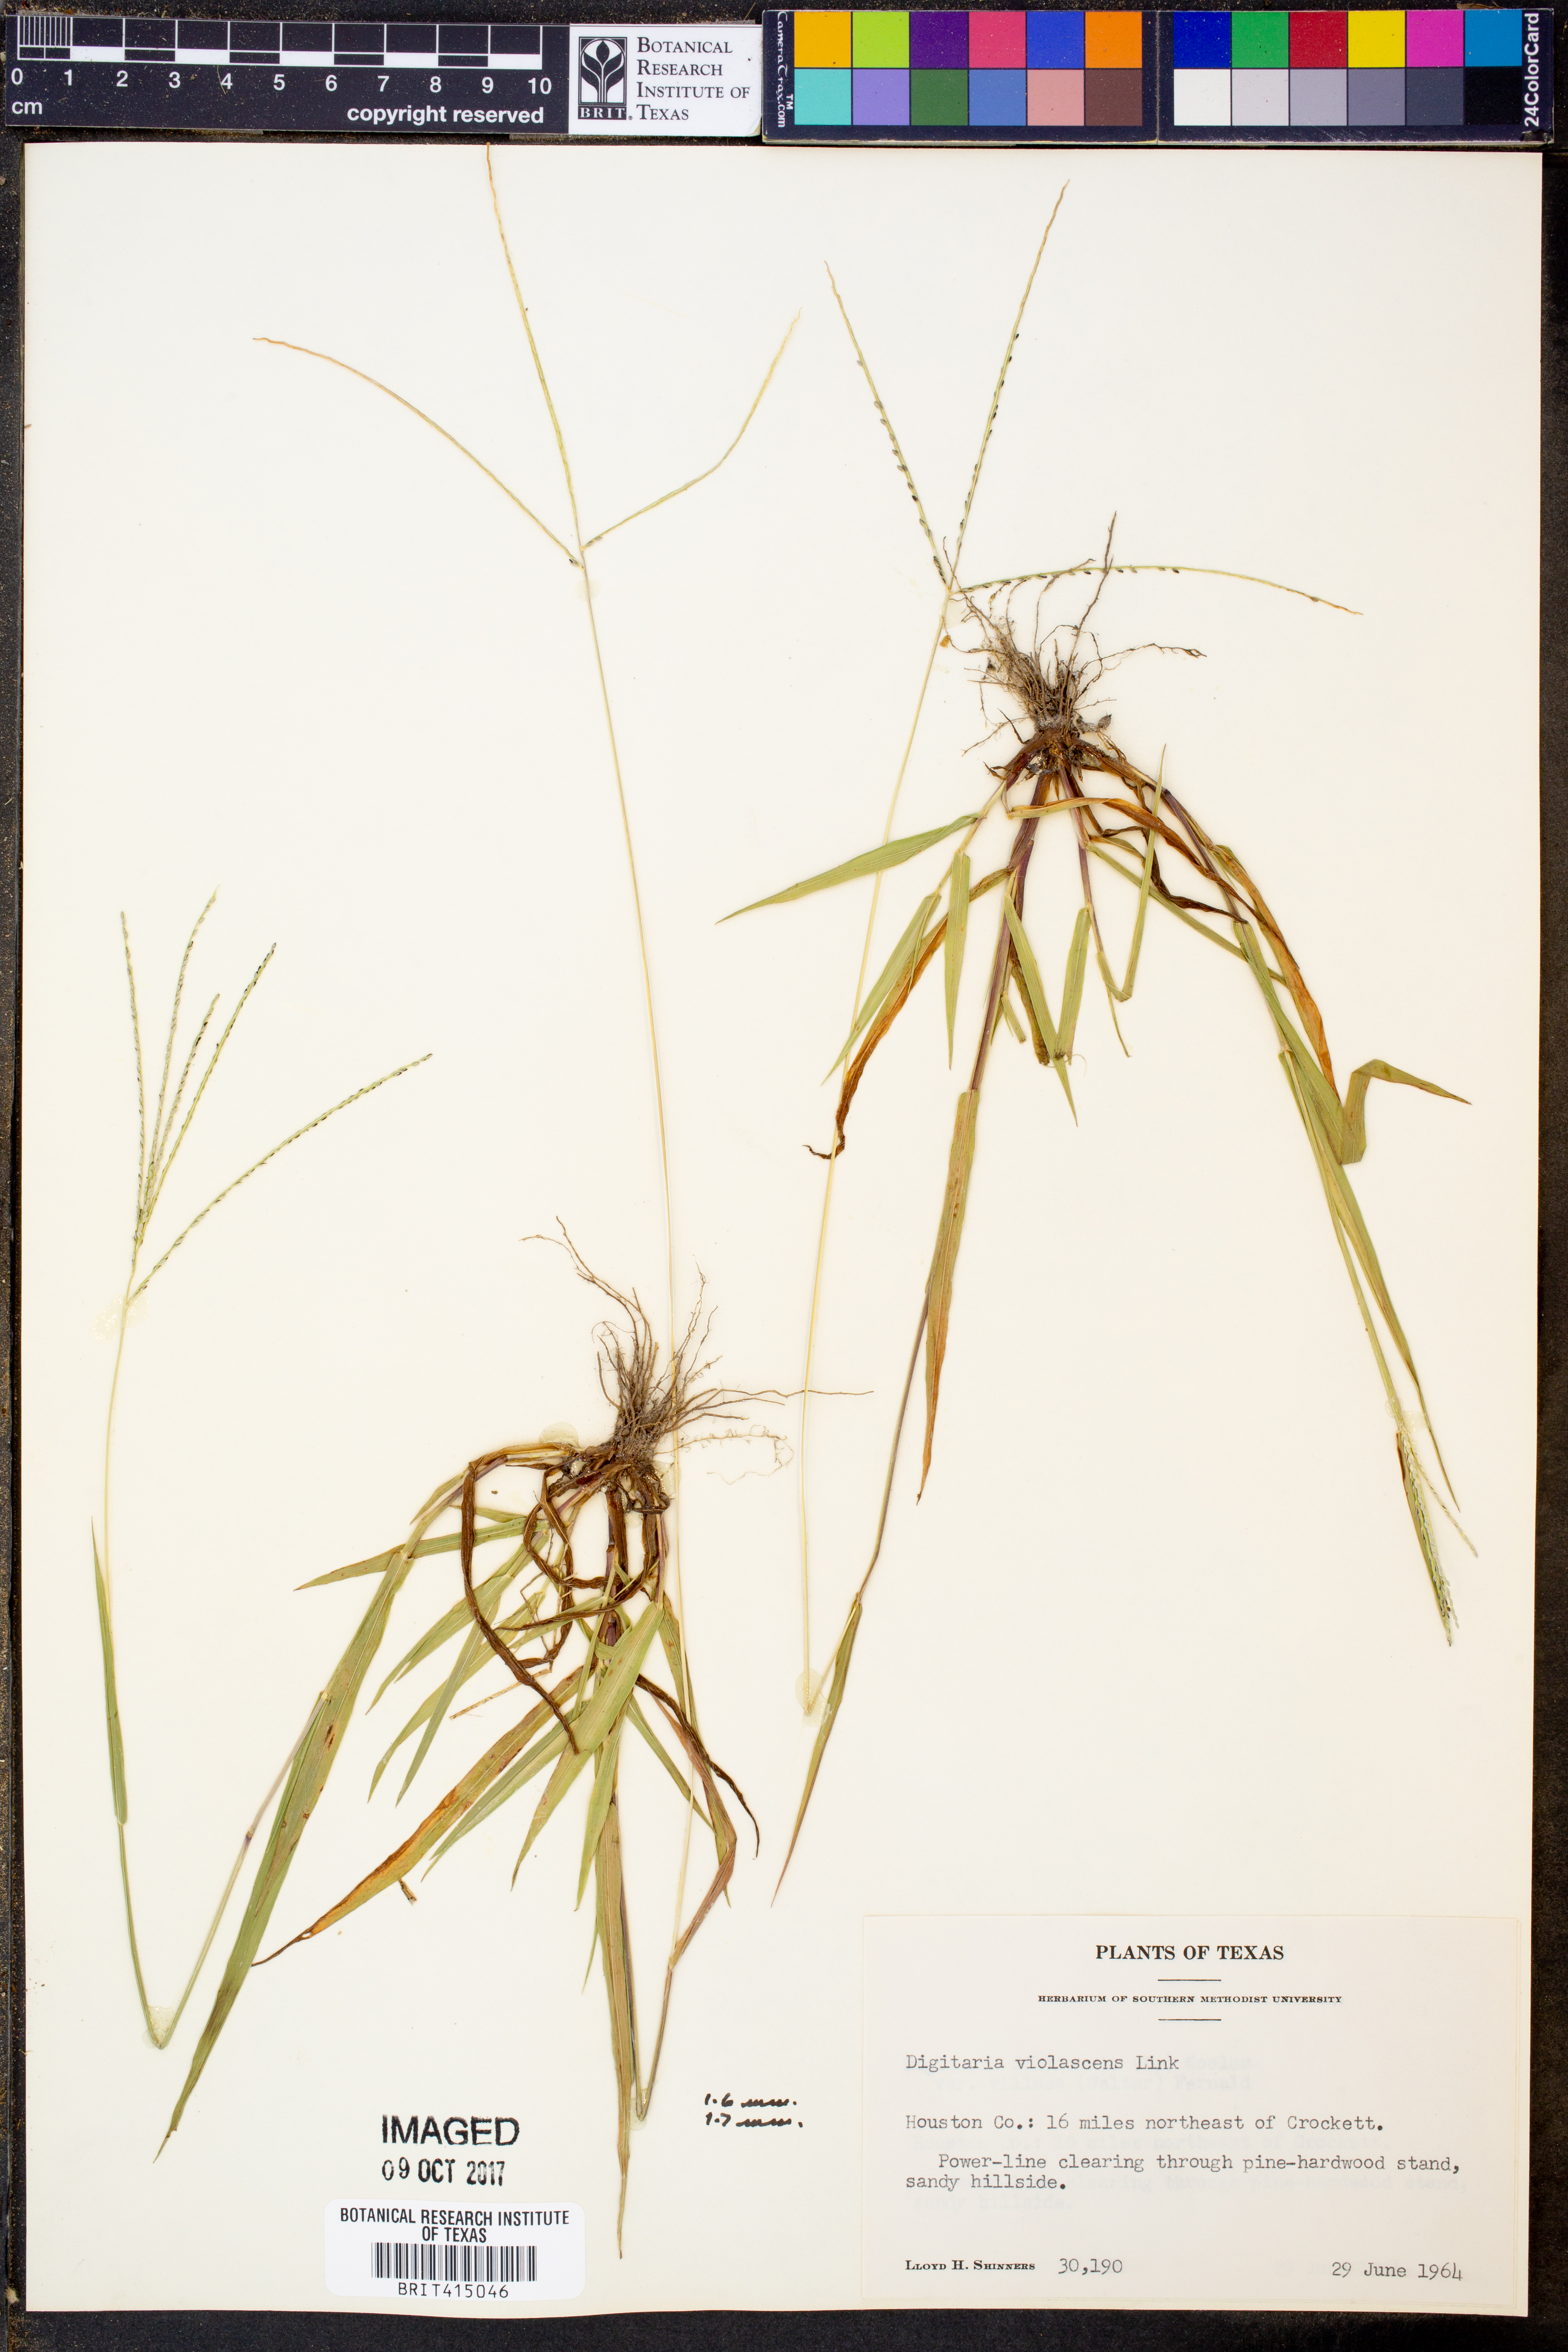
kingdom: Plantae
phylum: Tracheophyta
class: Liliopsida
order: Poales
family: Poaceae
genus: Digitaria
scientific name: Digitaria violascens
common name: Violet crabgrass
